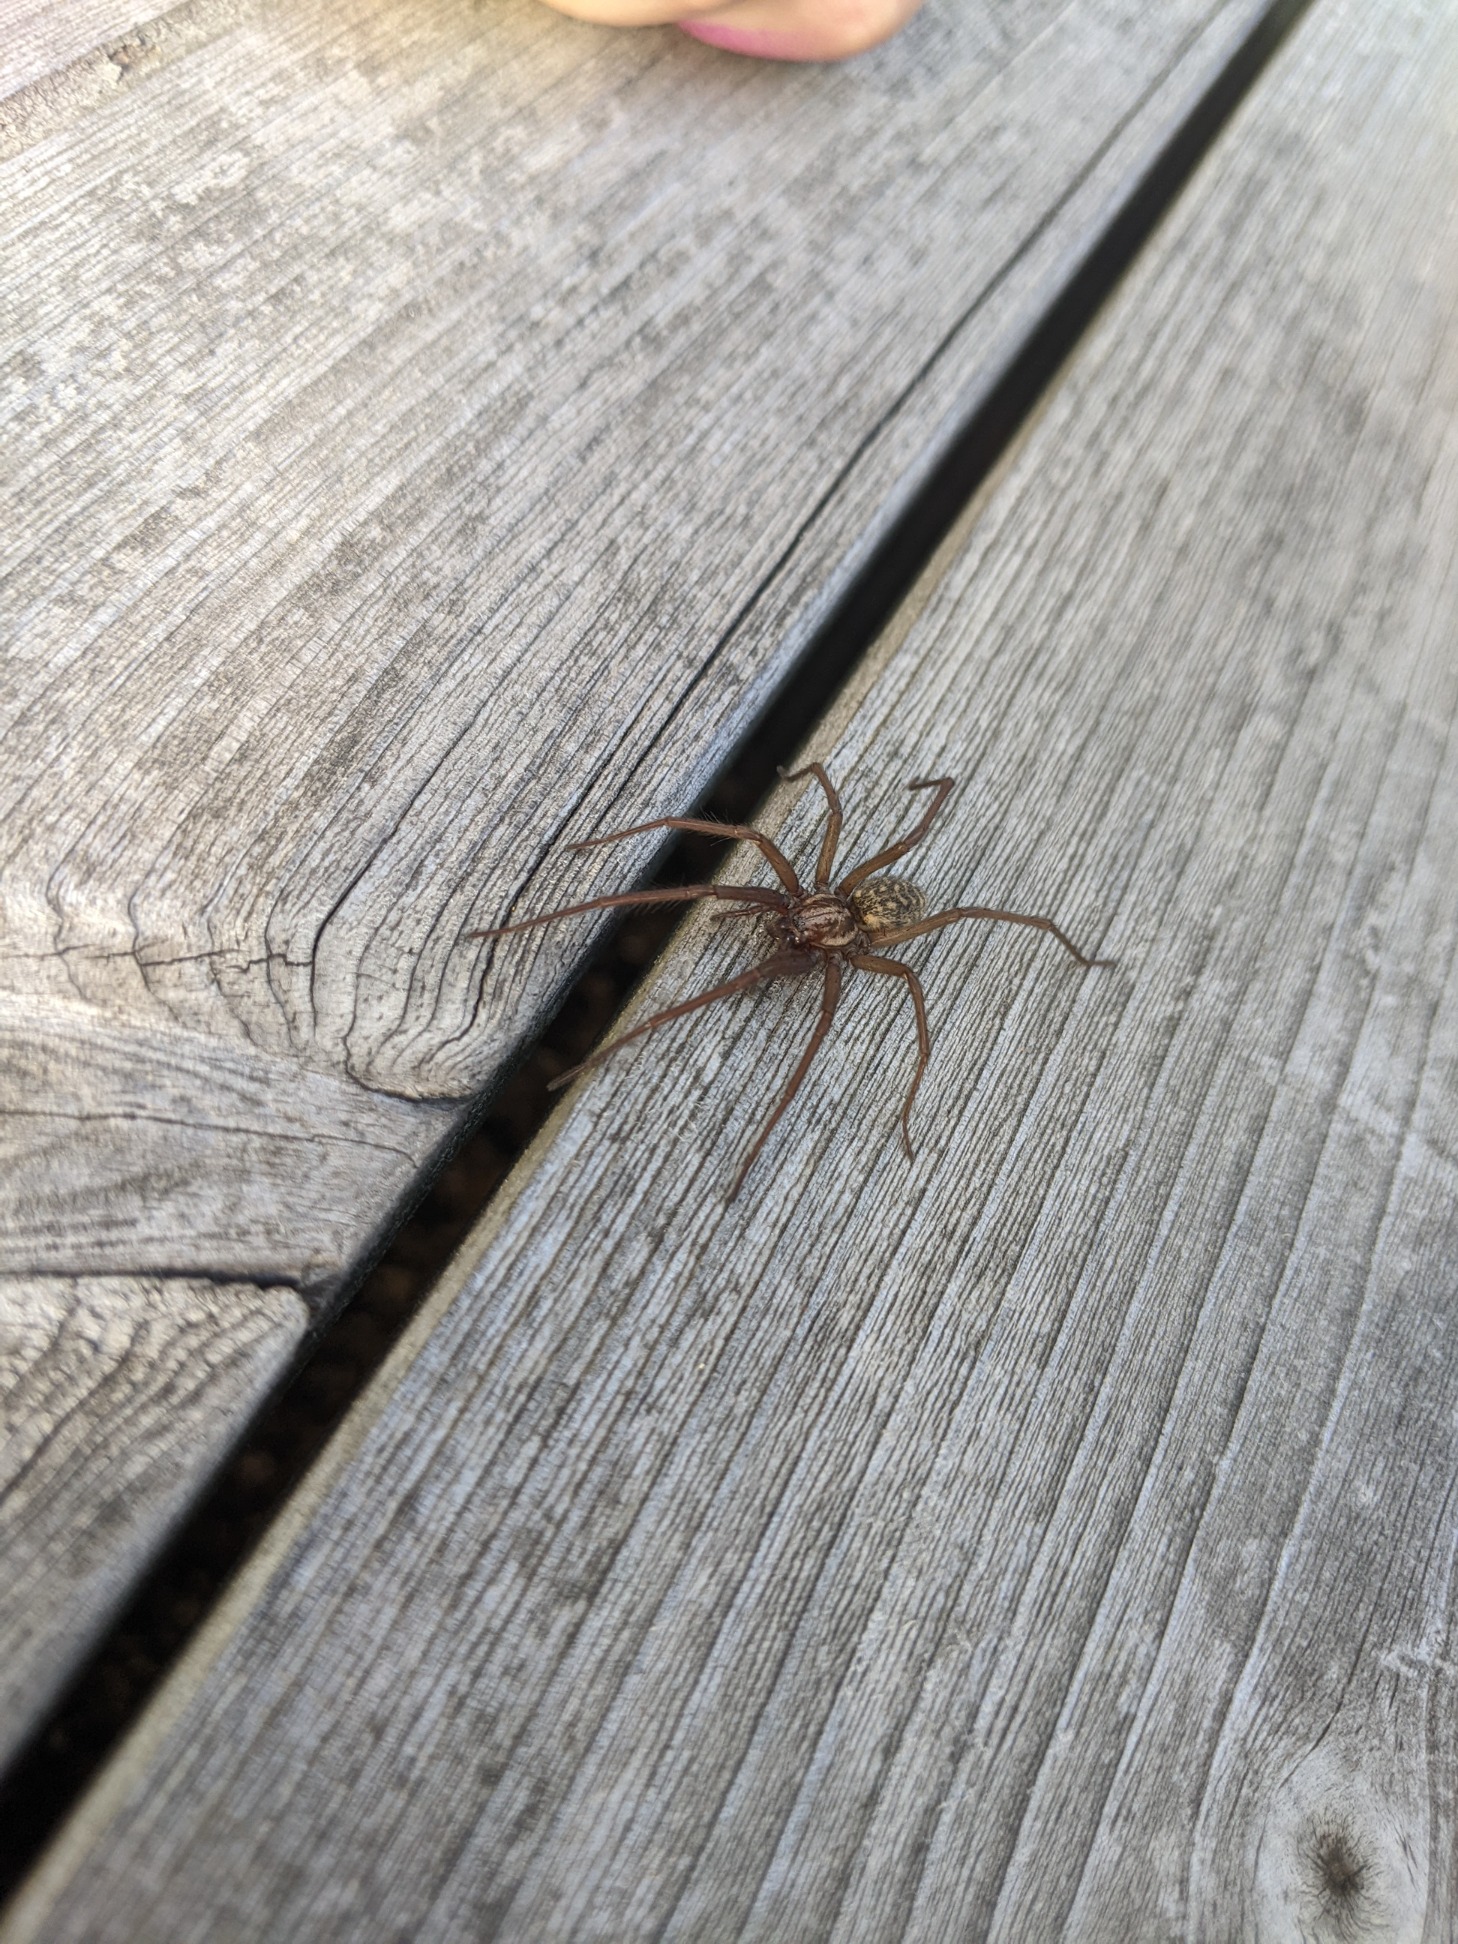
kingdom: Animalia
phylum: Arthropoda
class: Arachnida
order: Araneae
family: Agelenidae
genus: Eratigena
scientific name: Eratigena atrica
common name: Stor husedderkop
